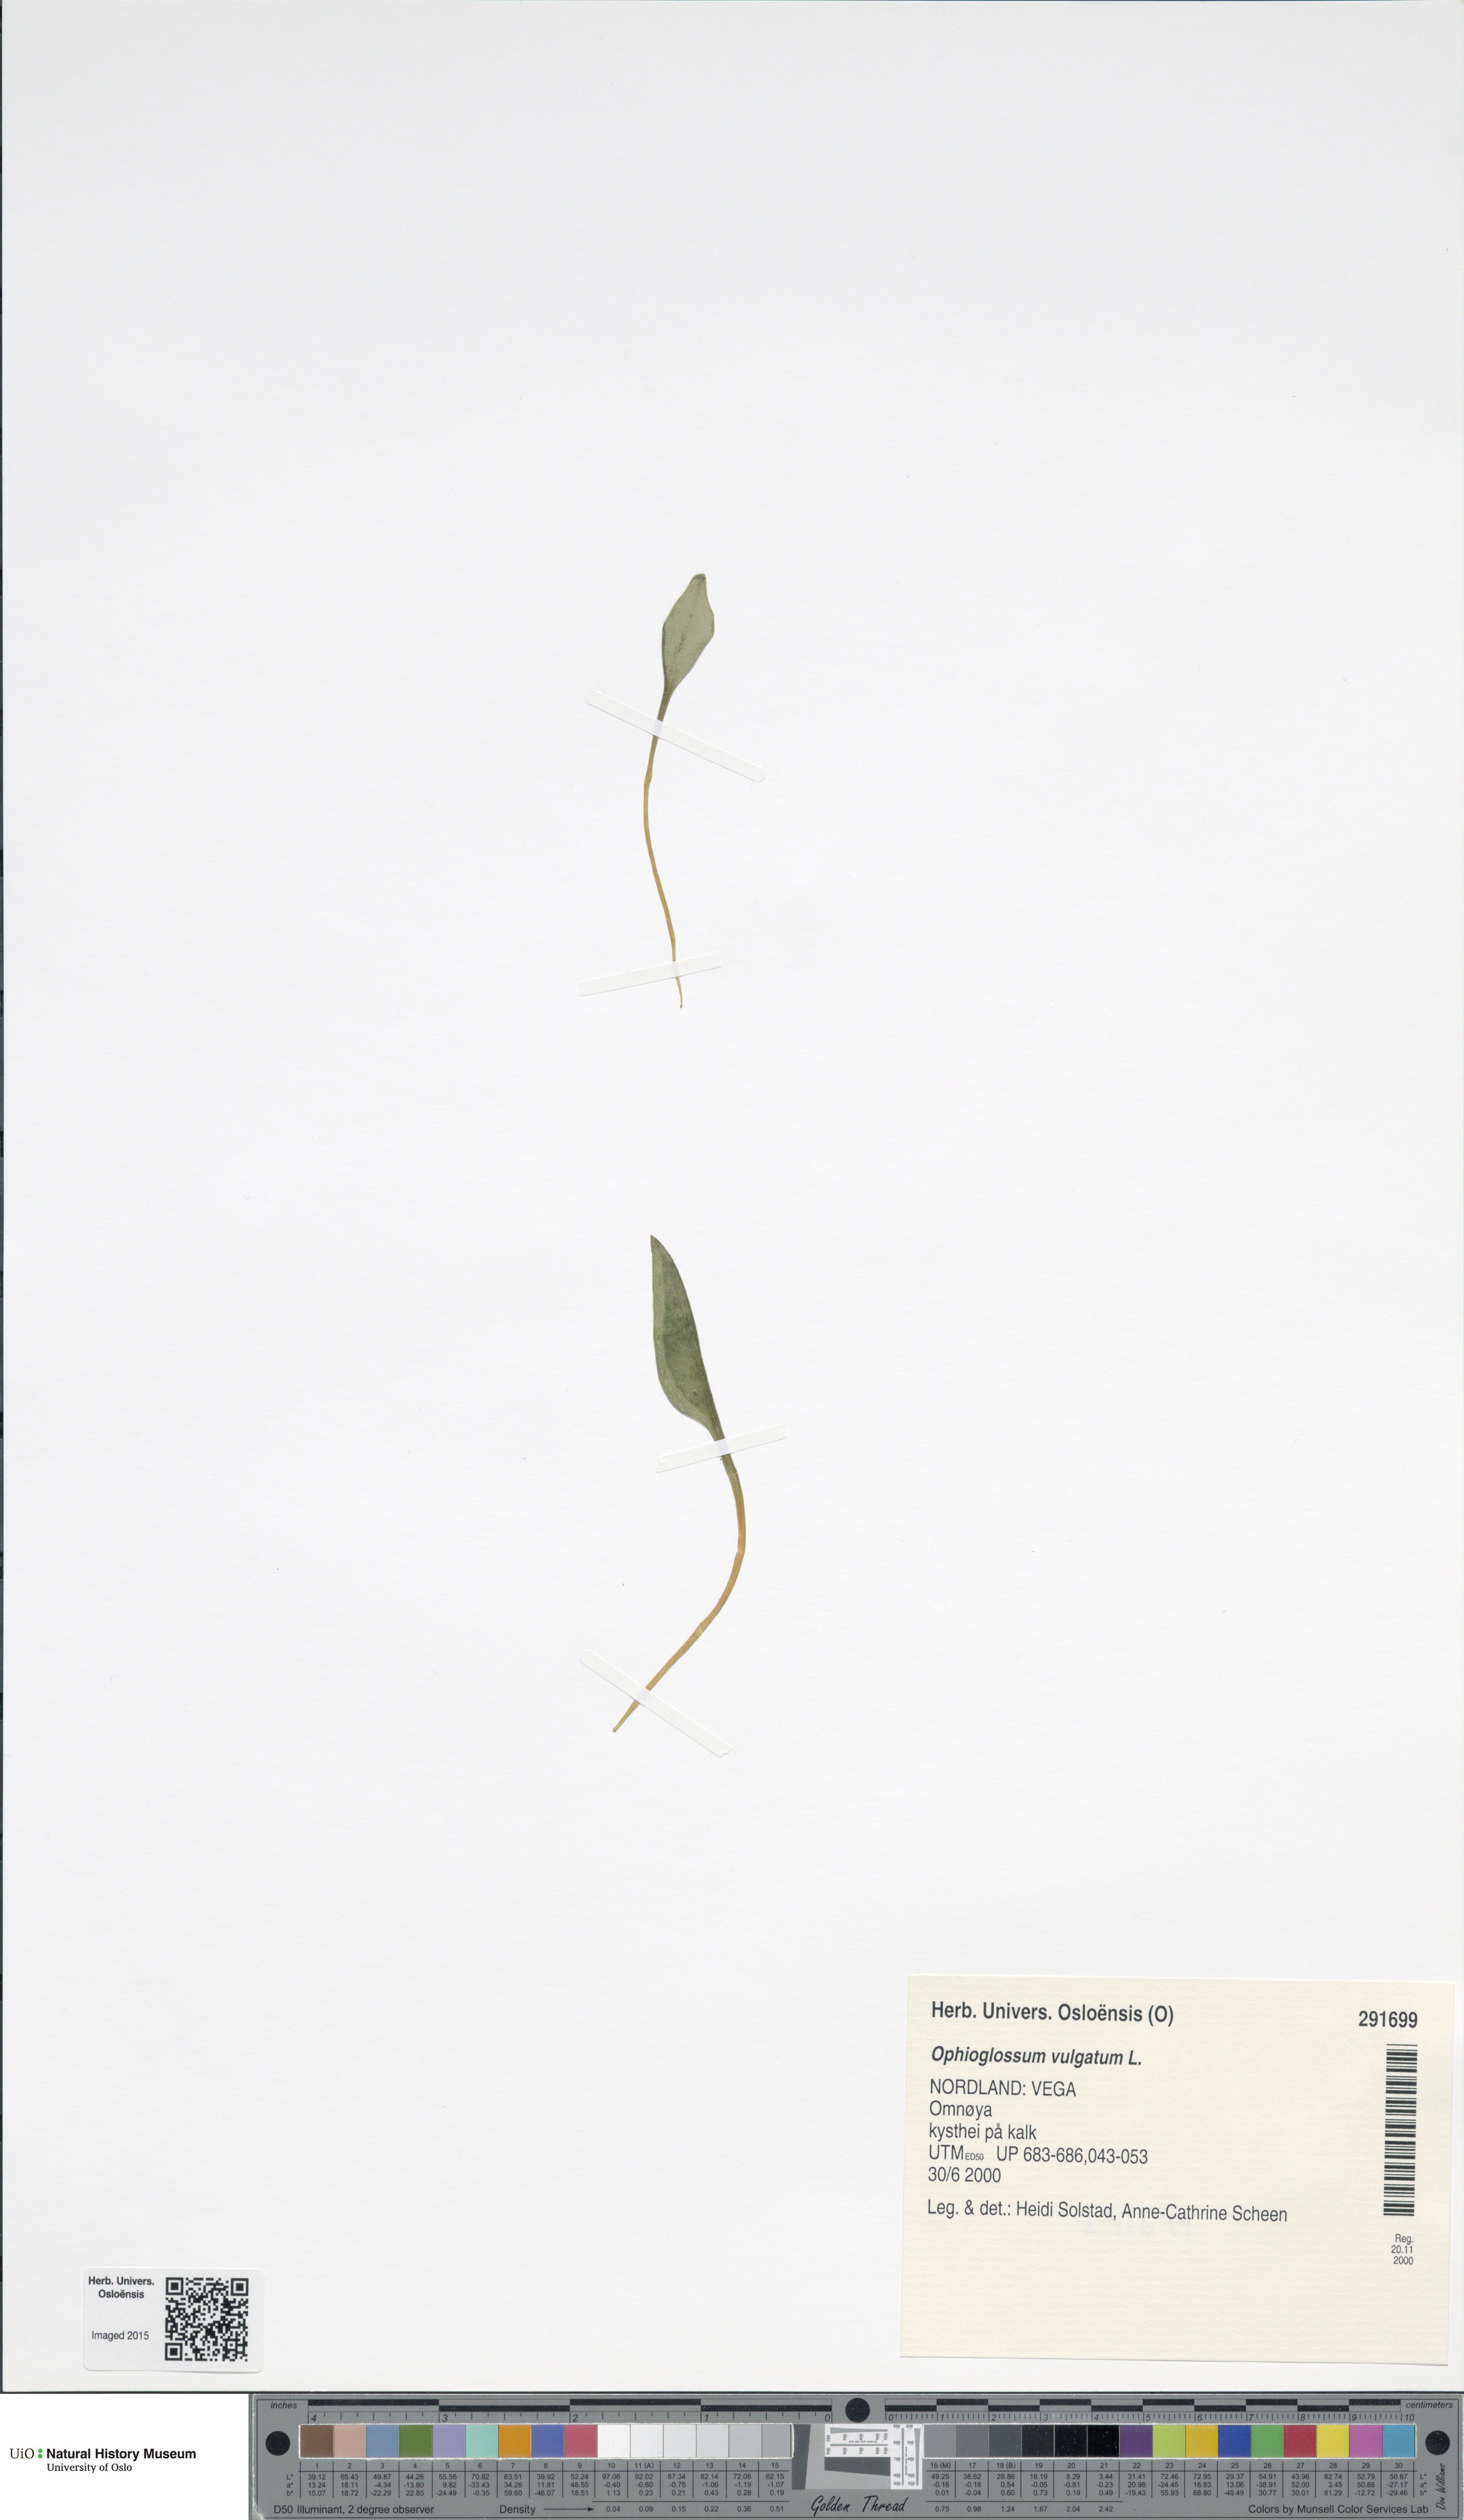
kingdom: Plantae
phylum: Tracheophyta
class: Polypodiopsida
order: Ophioglossales
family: Ophioglossaceae
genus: Ophioglossum
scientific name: Ophioglossum vulgatum
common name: Adder's-tongue
